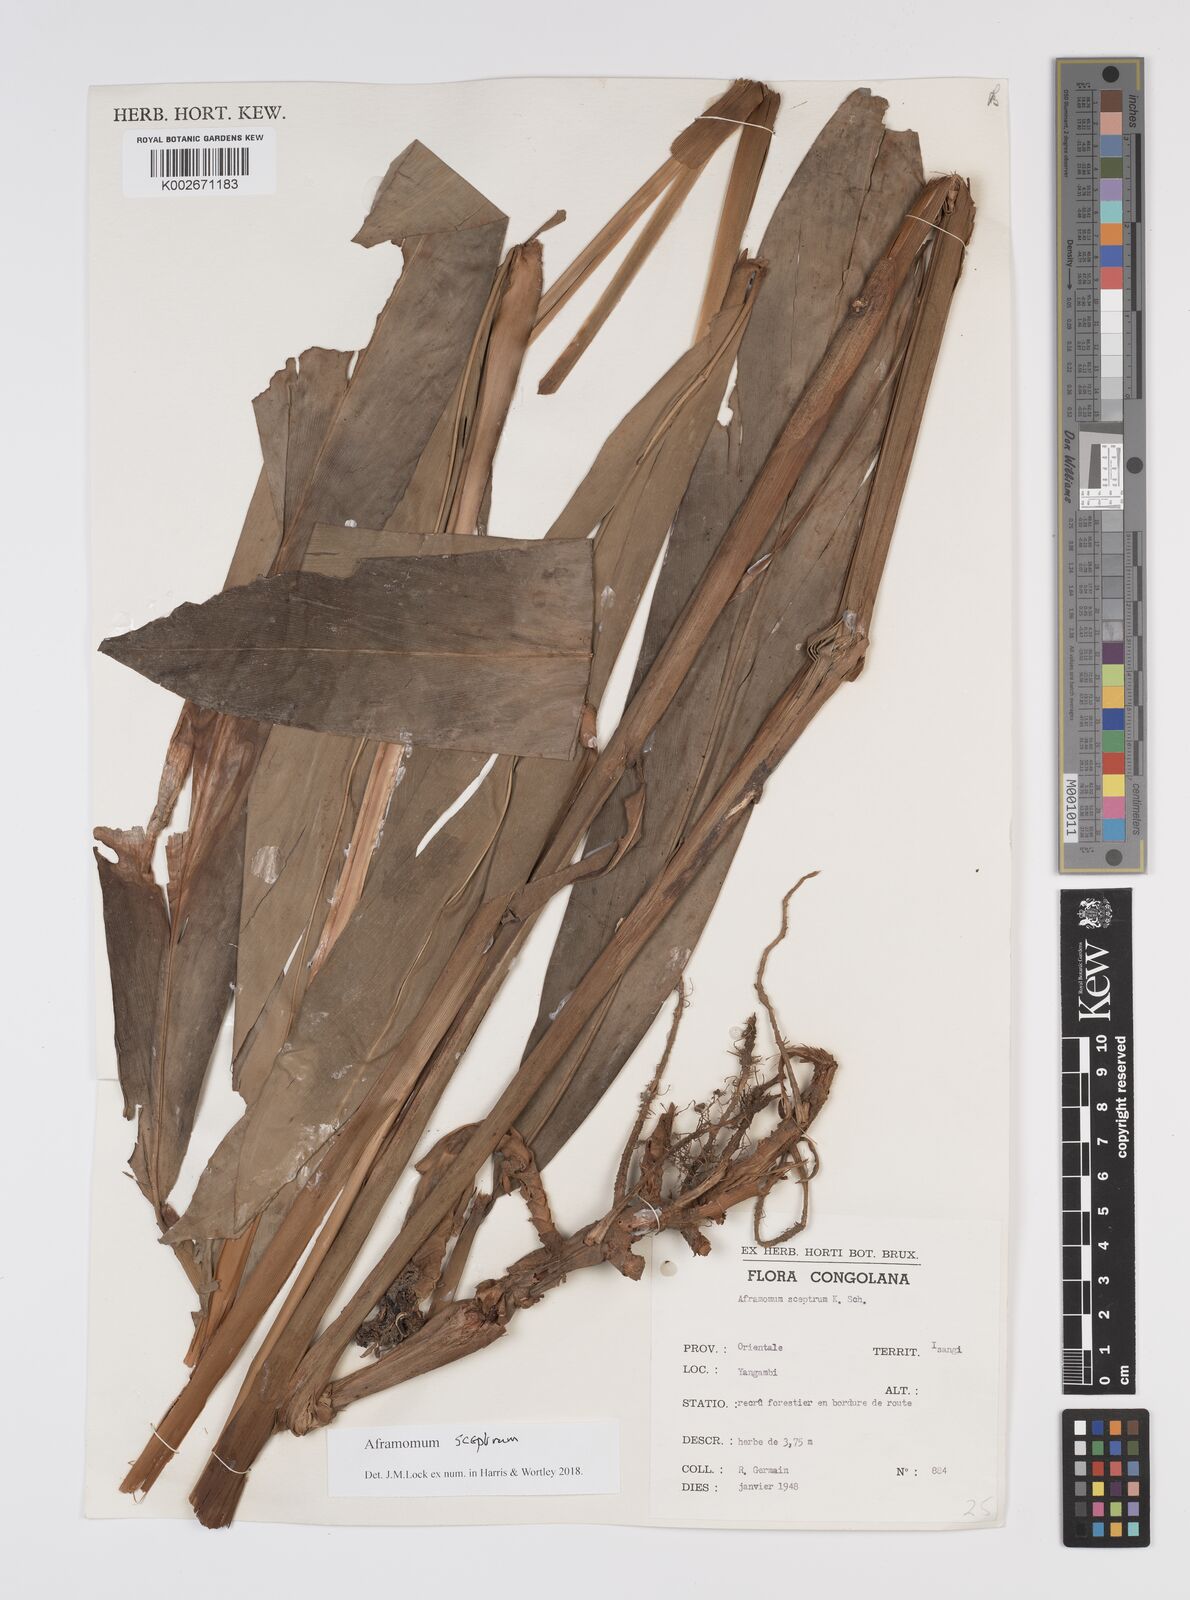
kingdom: Plantae
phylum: Tracheophyta
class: Liliopsida
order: Zingiberales
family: Zingiberaceae
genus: Aframomum
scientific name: Aframomum cereum
